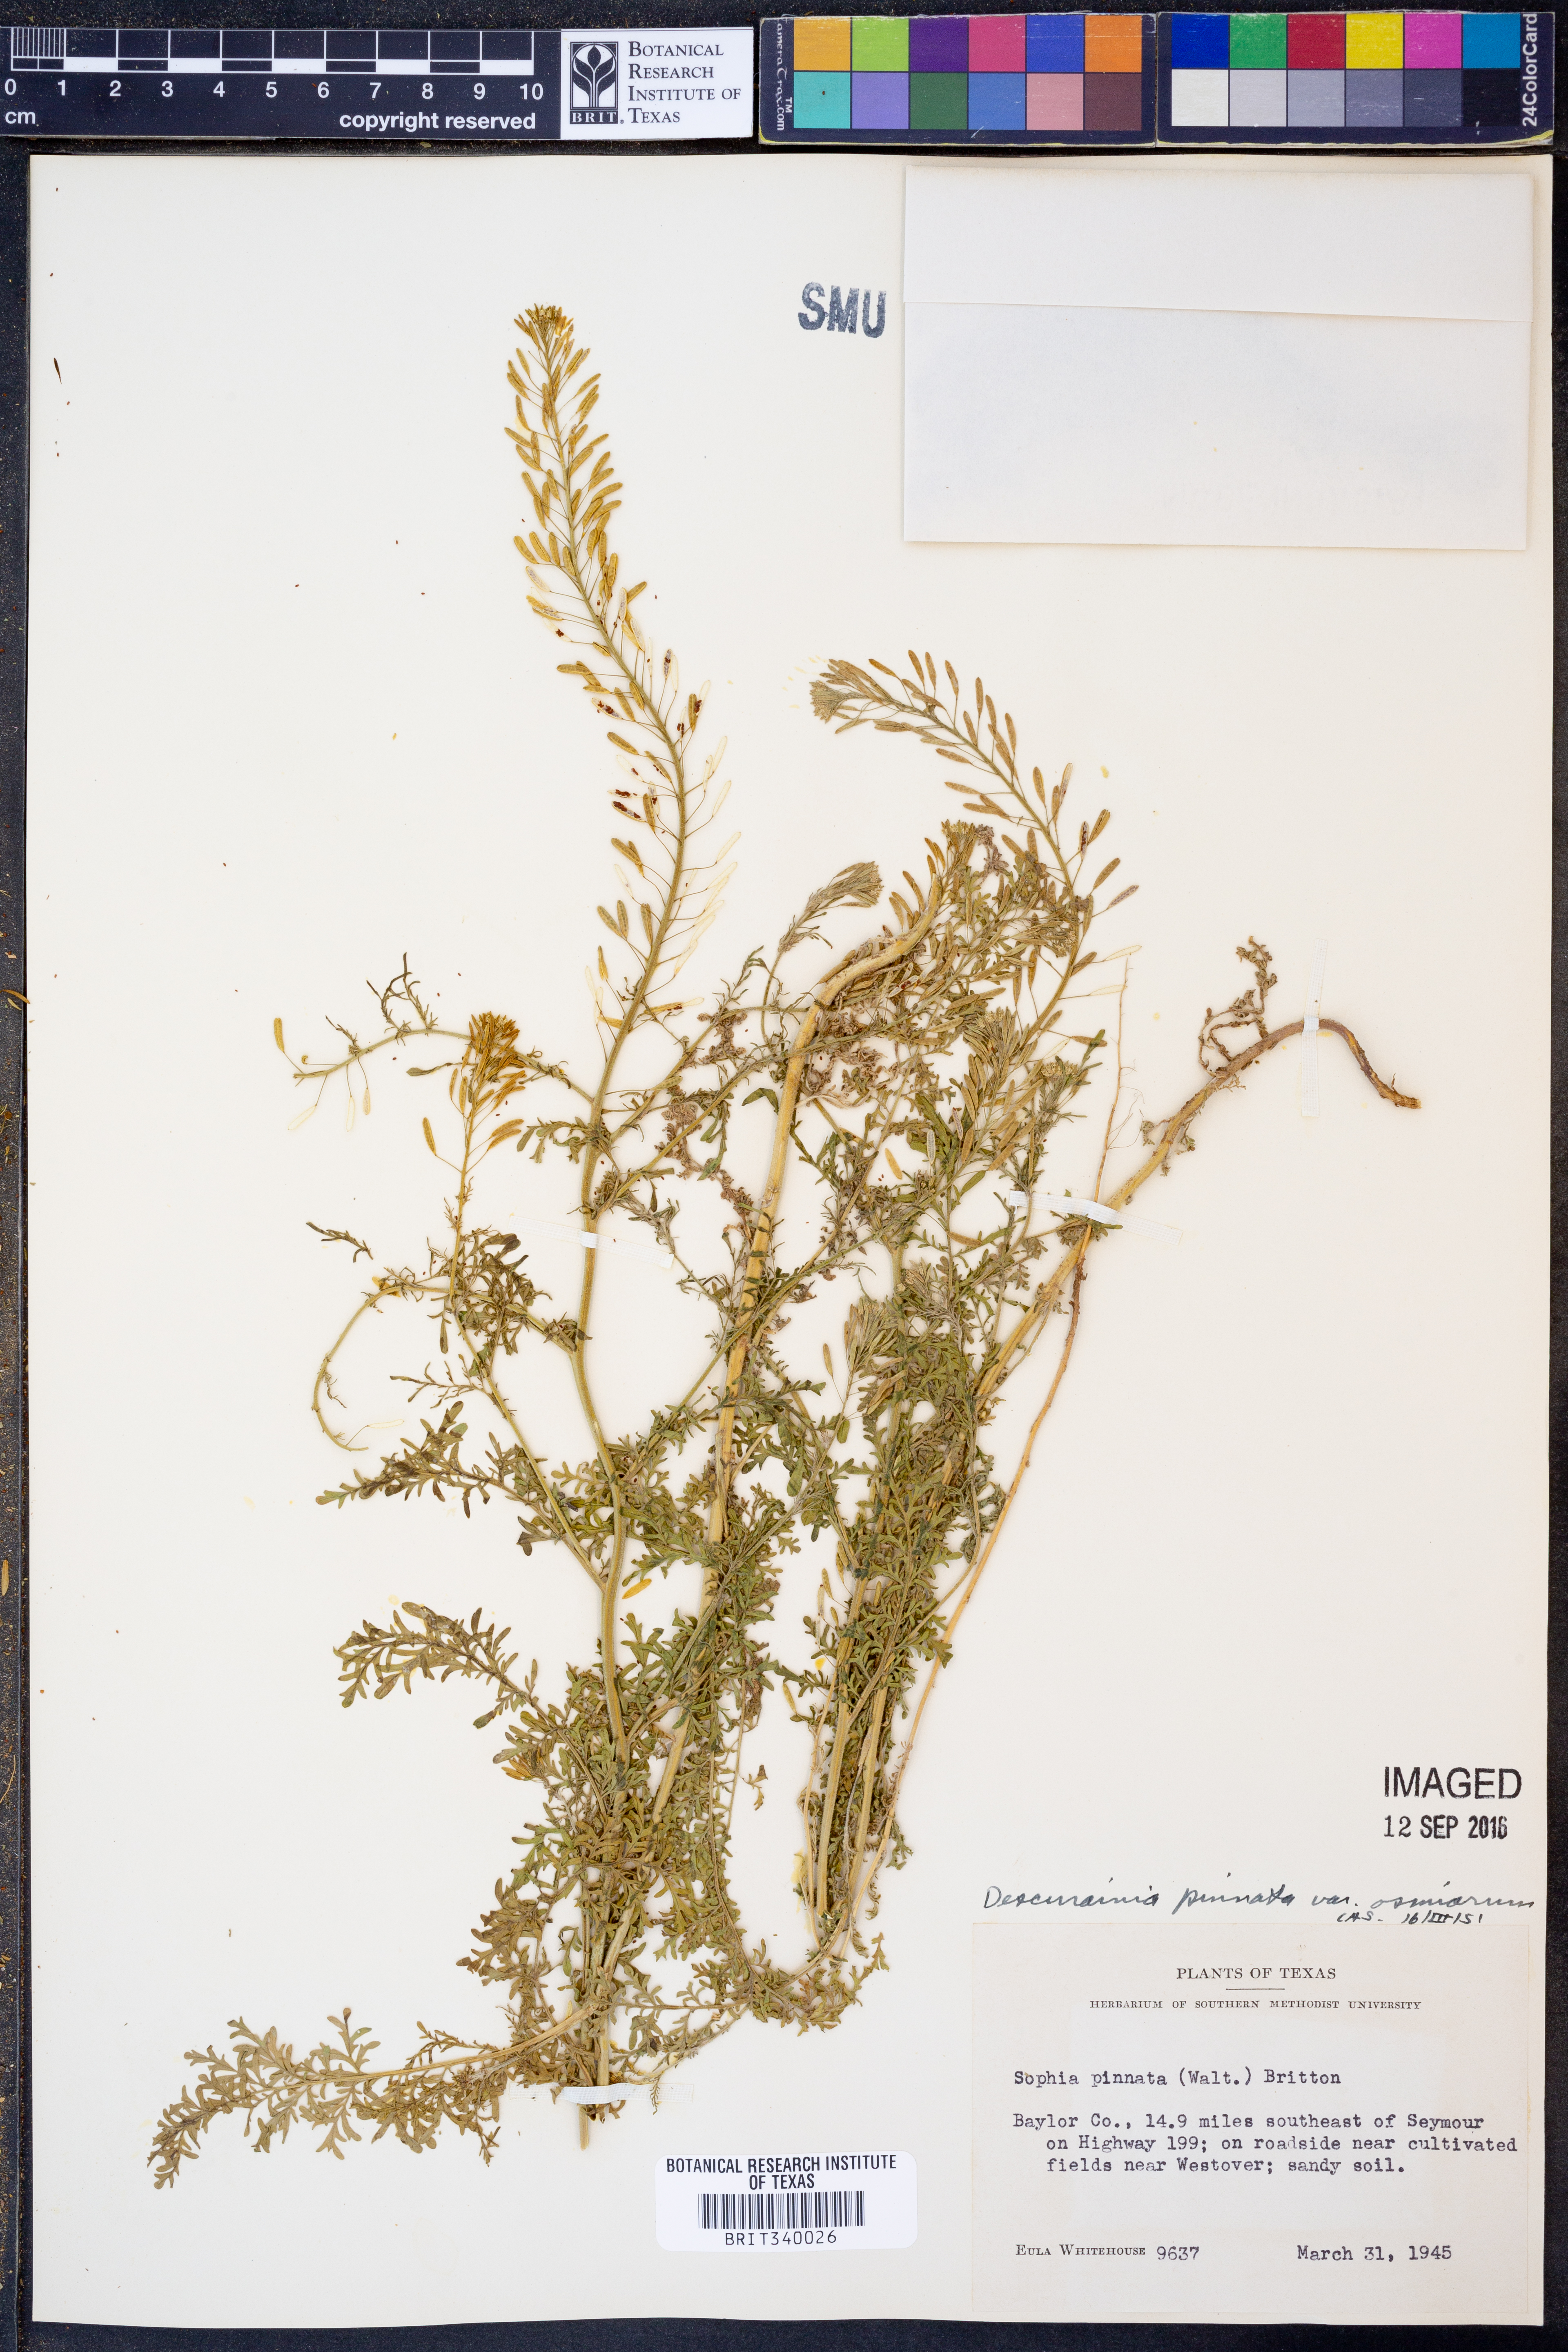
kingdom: Plantae
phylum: Tracheophyta
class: Magnoliopsida
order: Brassicales
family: Brassicaceae
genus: Descurainia
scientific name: Descurainia pinnata
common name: Western tansy mustard
